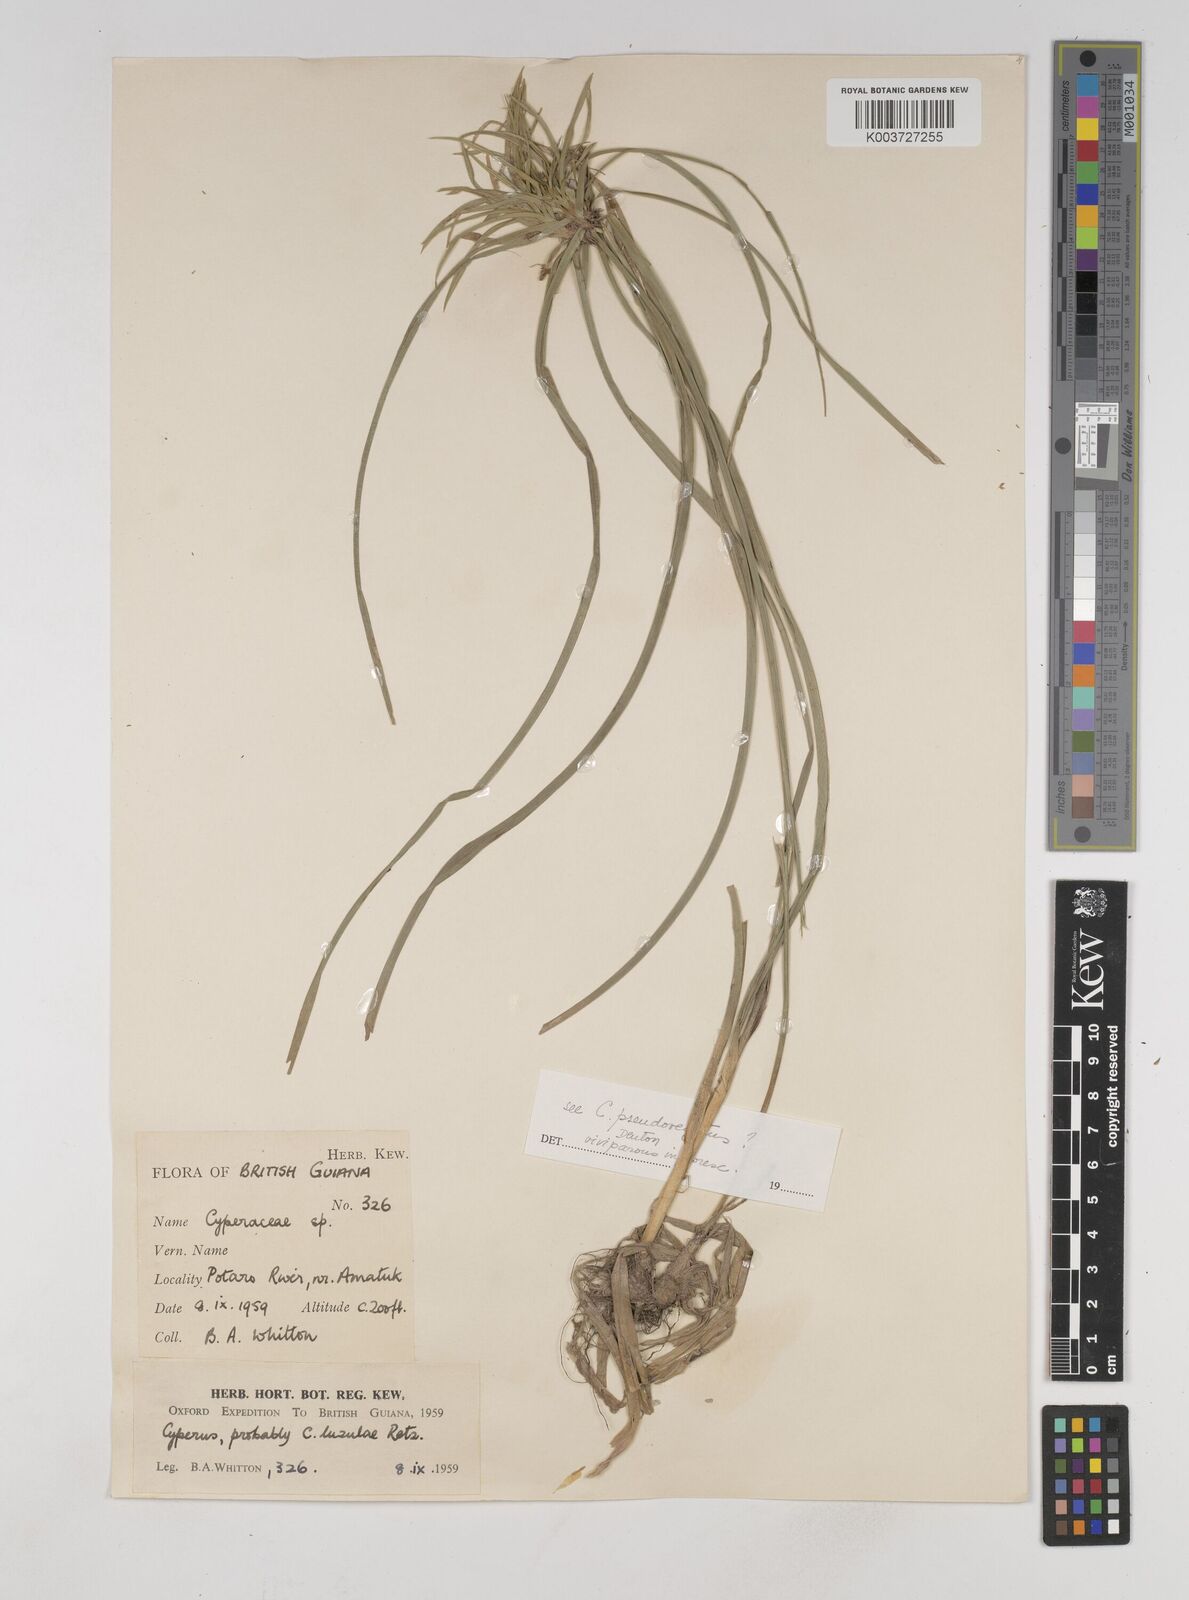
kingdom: Plantae
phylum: Tracheophyta
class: Liliopsida
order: Poales
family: Cyperaceae
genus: Cyperus
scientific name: Cyperus luzulae
